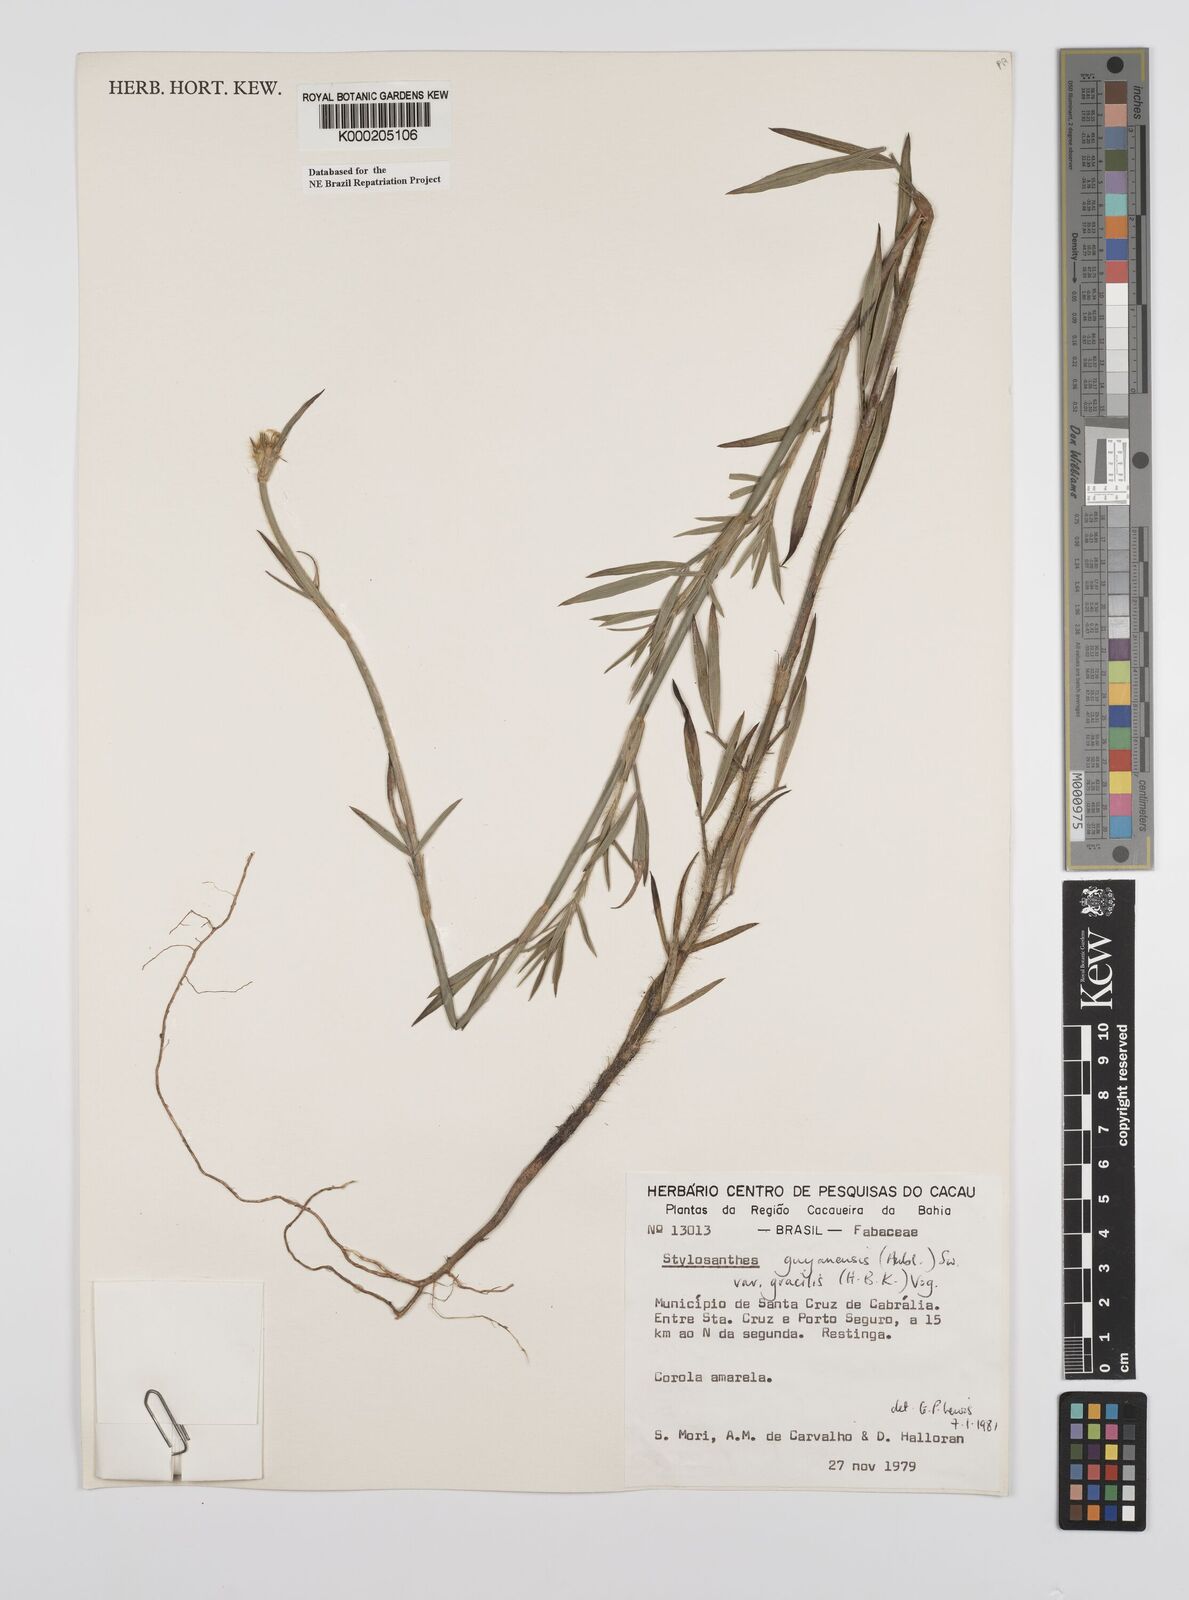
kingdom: Plantae
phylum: Tracheophyta
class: Magnoliopsida
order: Fabales
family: Fabaceae
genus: Stylosanthes
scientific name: Stylosanthes guianensis
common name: Pencil flower
